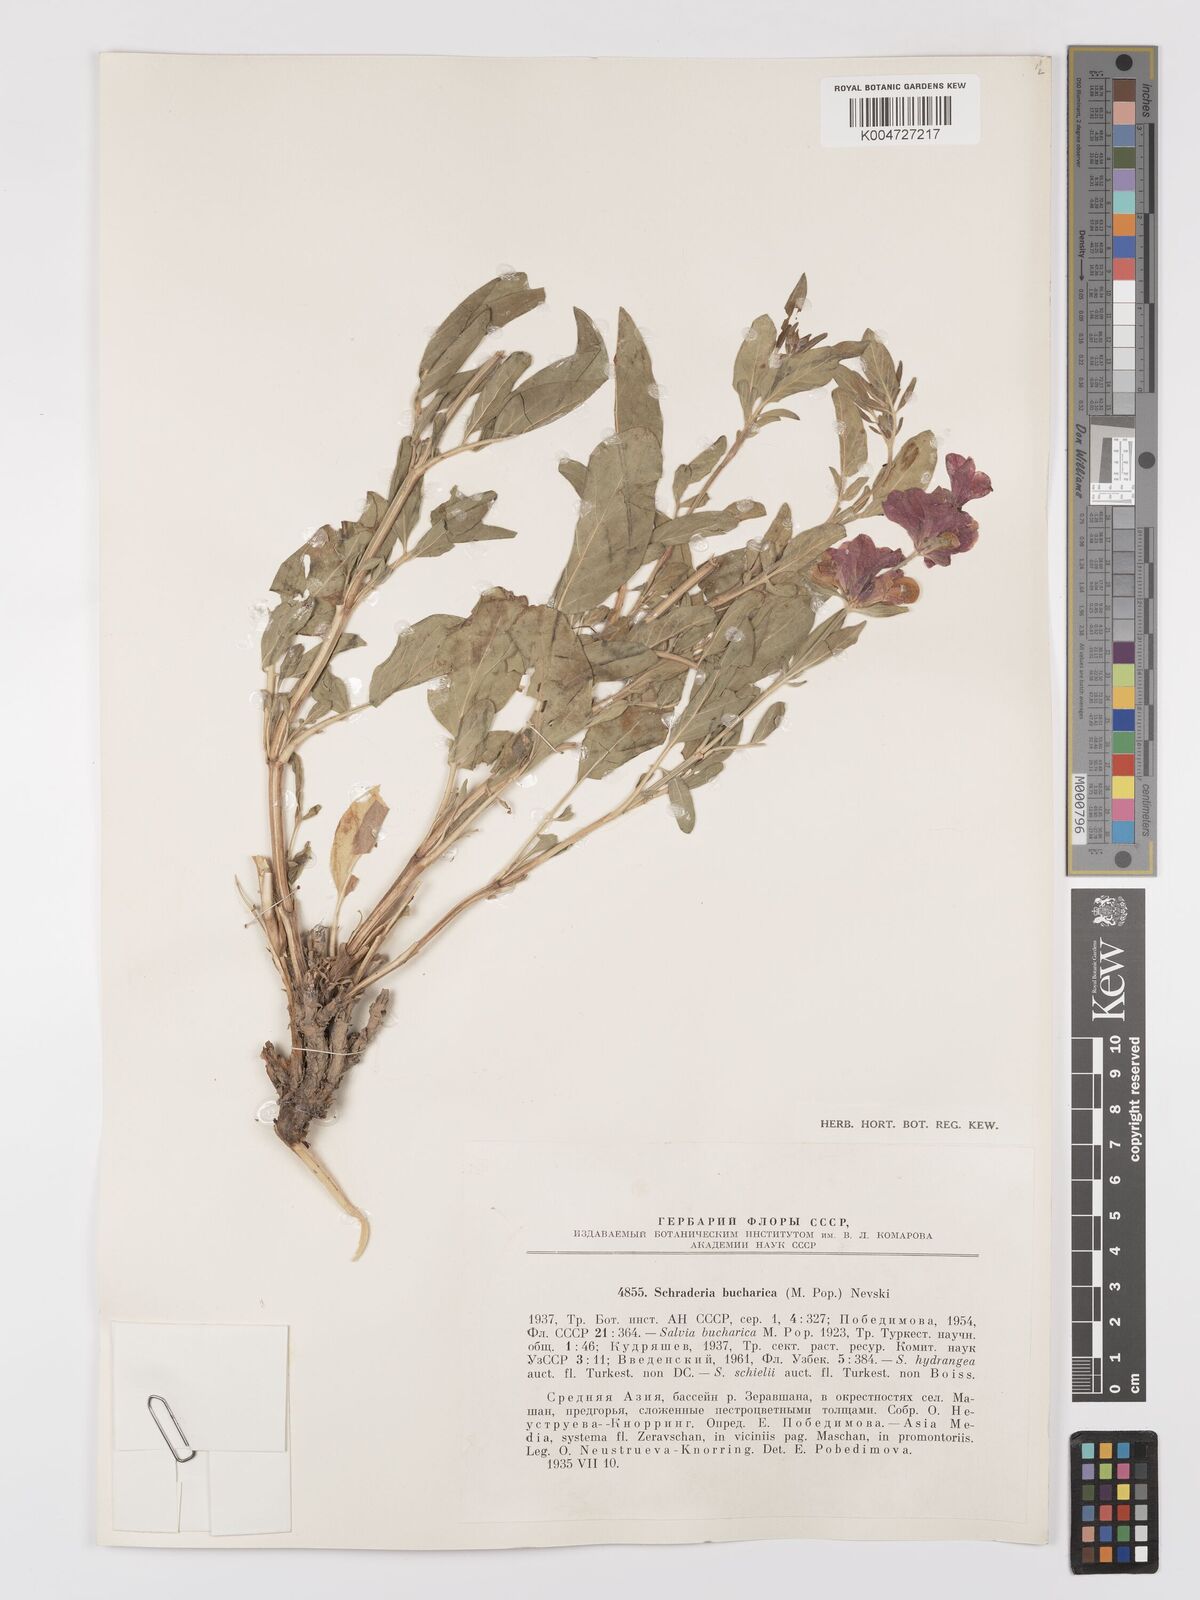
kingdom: Plantae
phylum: Tracheophyta
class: Magnoliopsida
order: Lamiales
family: Lamiaceae
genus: Salvia
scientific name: Salvia bucharica
